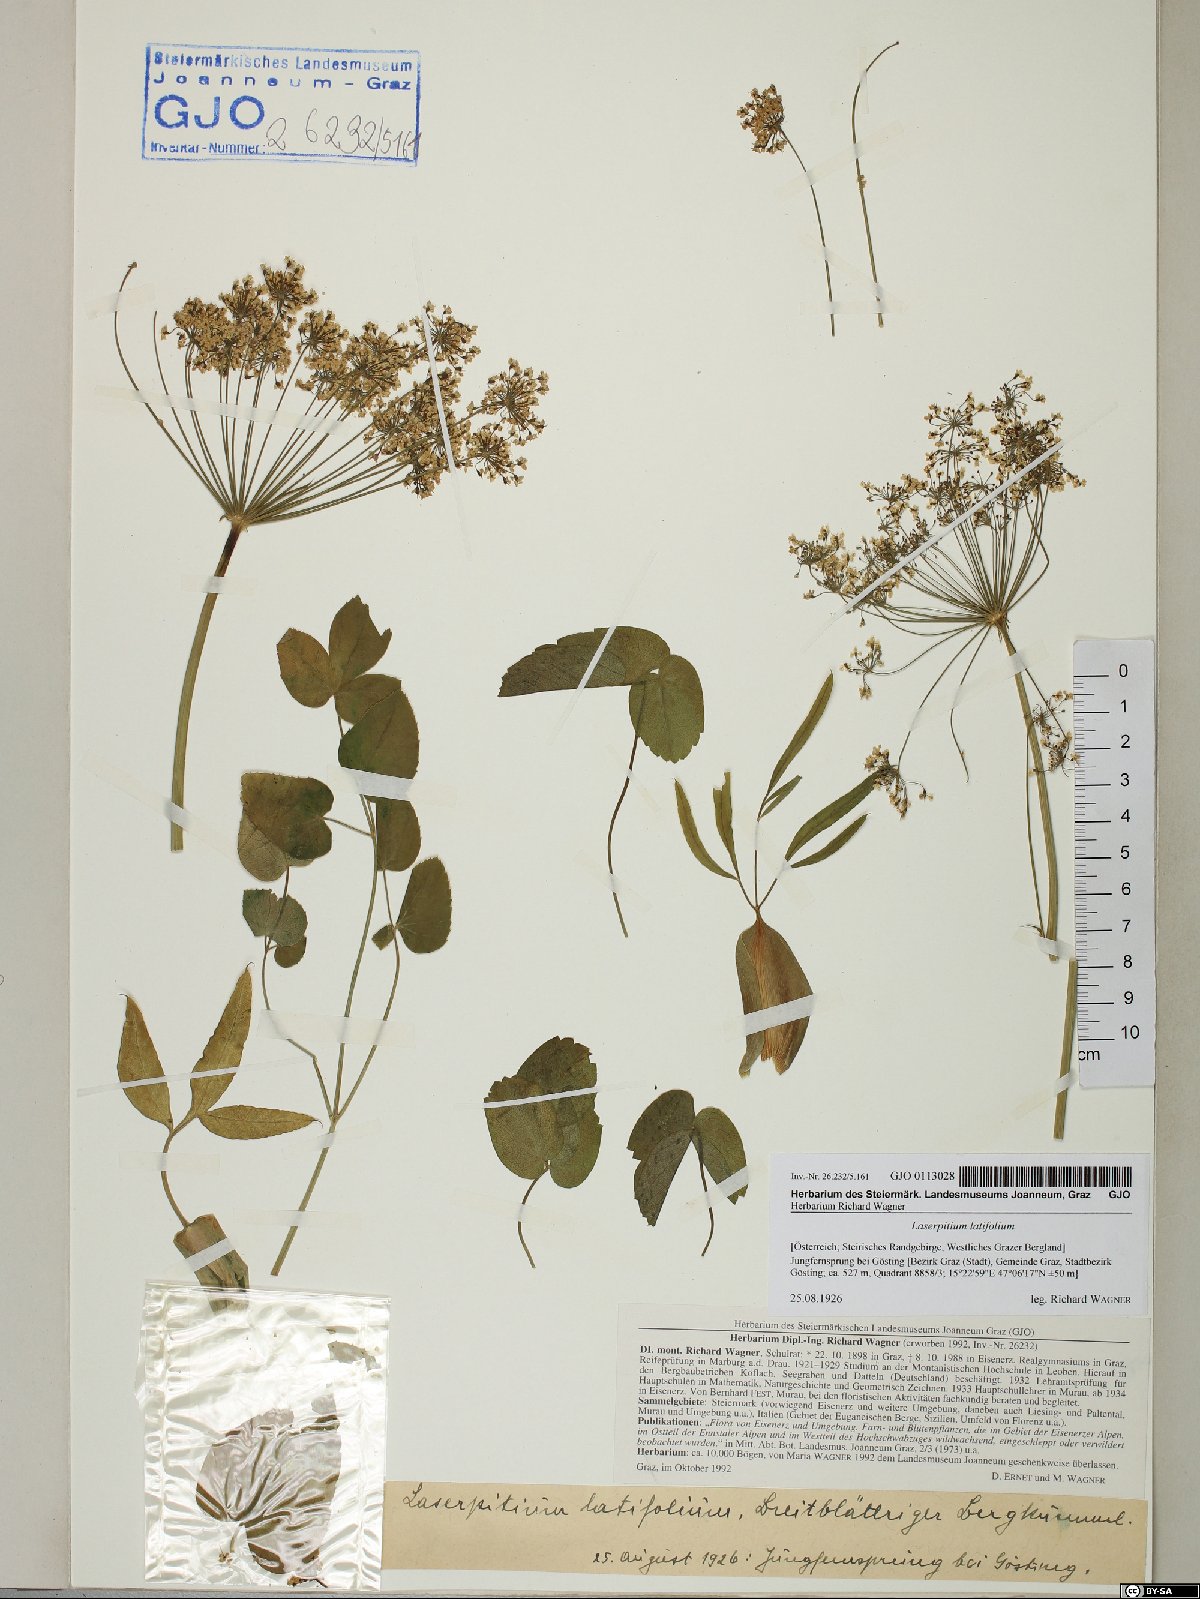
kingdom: Plantae
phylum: Tracheophyta
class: Magnoliopsida
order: Apiales
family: Apiaceae
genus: Laserpitium
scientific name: Laserpitium latifolium
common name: Broadleaf sermountain
